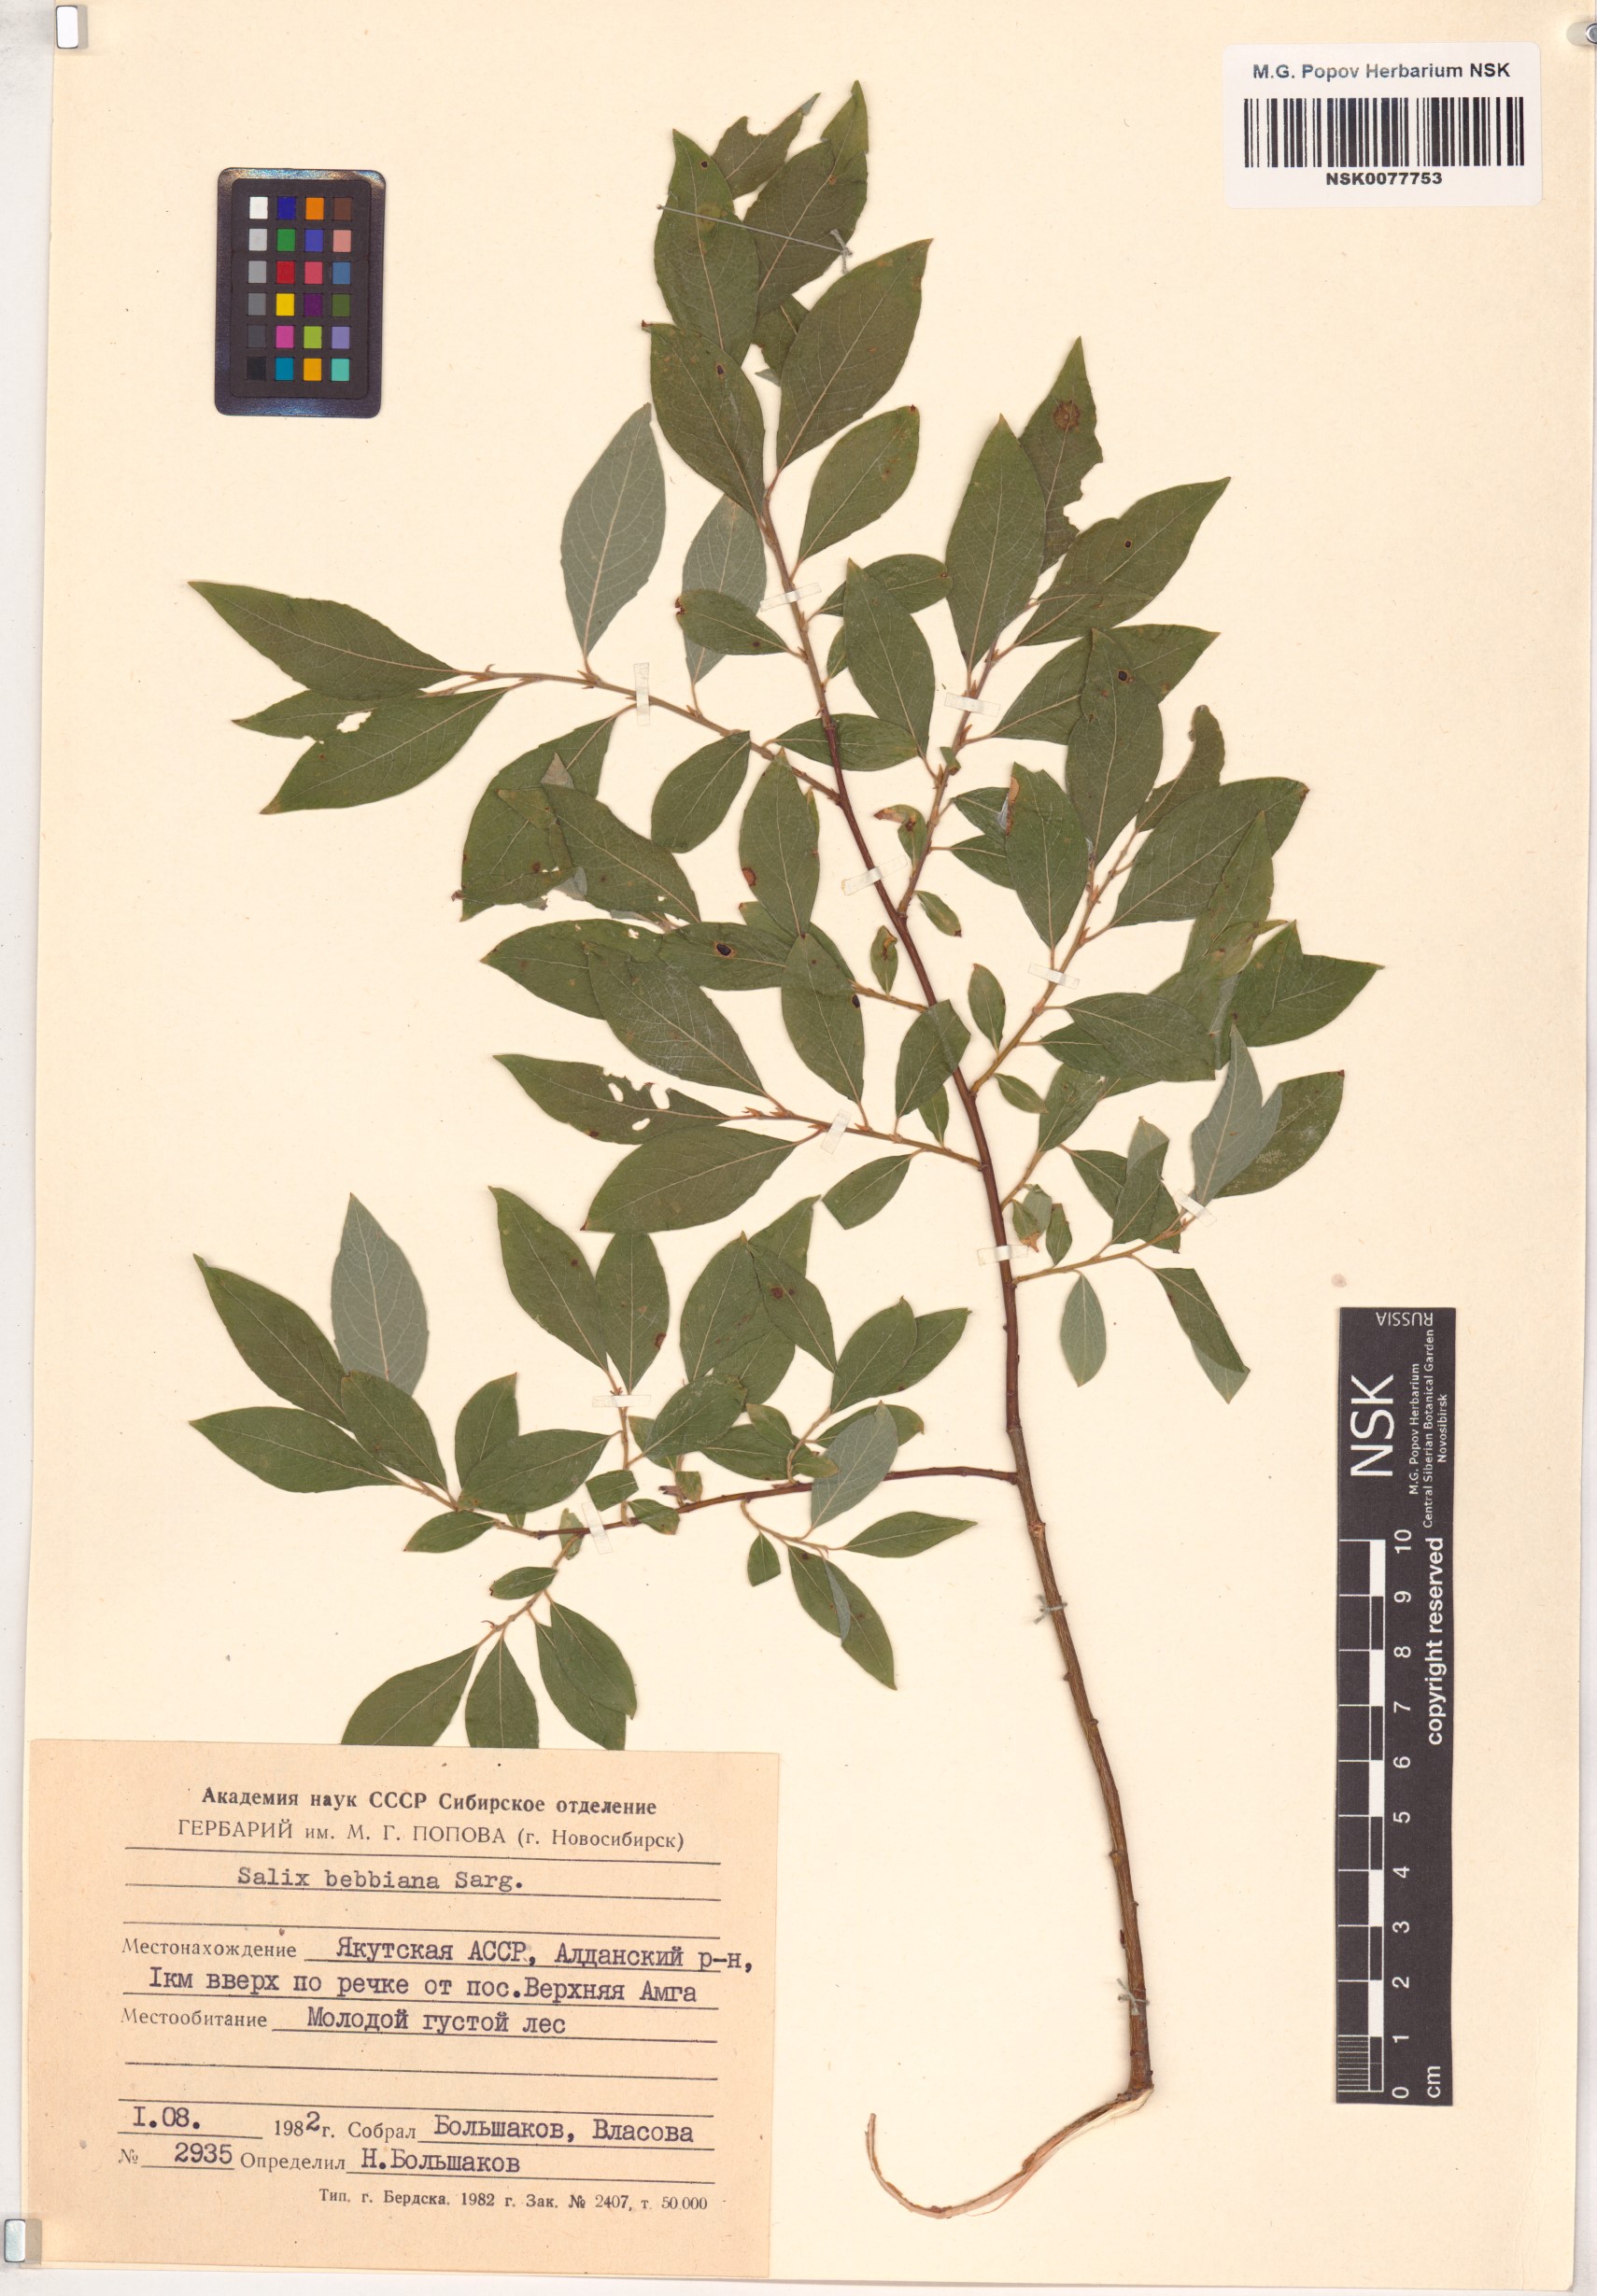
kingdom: Plantae
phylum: Tracheophyta
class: Magnoliopsida
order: Malpighiales
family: Salicaceae
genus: Salix
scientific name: Salix bebbiana
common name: Bebb's willow
